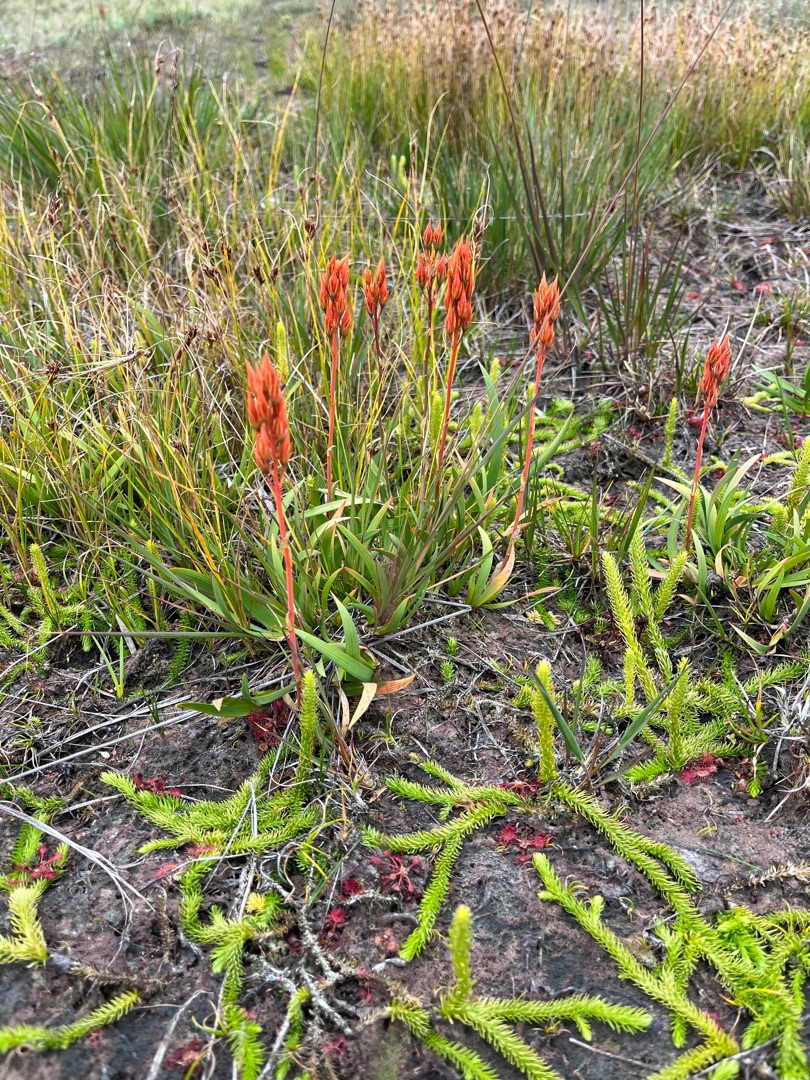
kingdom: Plantae
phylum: Tracheophyta
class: Lycopodiopsida
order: Lycopodiales
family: Lycopodiaceae
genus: Lycopodiella
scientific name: Lycopodiella inundata
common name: Liden ulvefod
